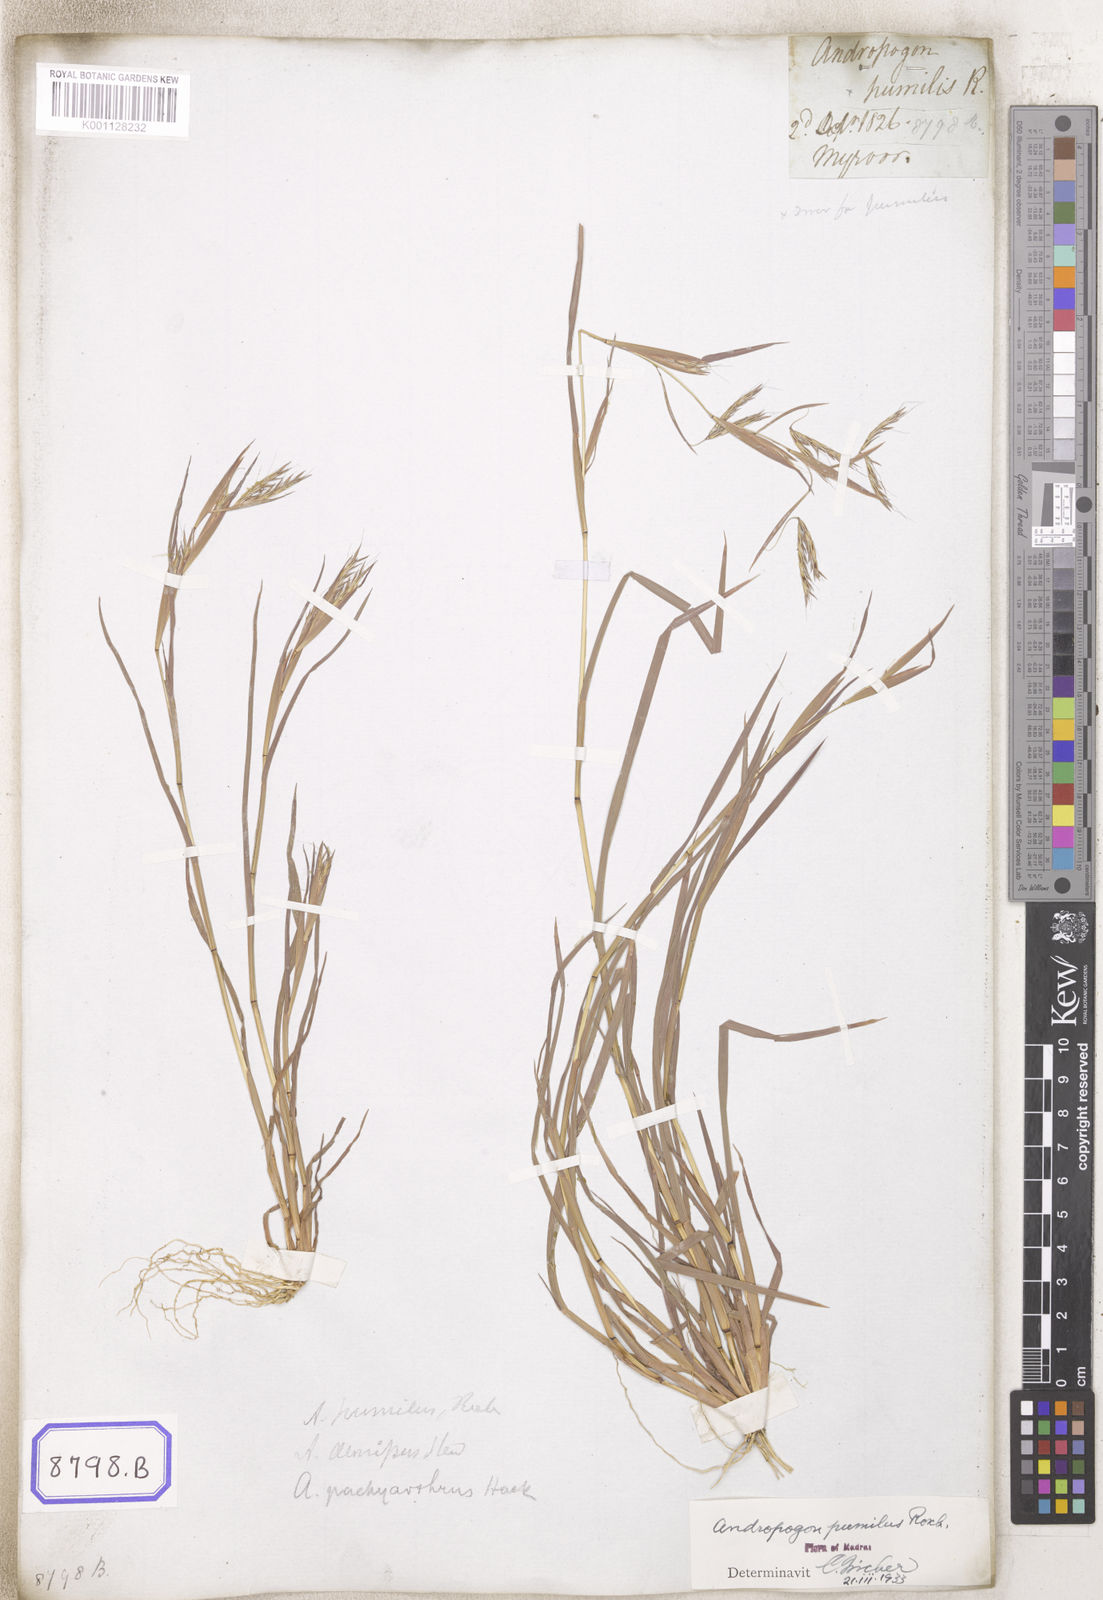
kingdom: Plantae
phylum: Tracheophyta
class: Liliopsida
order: Poales
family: Poaceae
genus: Andropogon
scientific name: Andropogon
